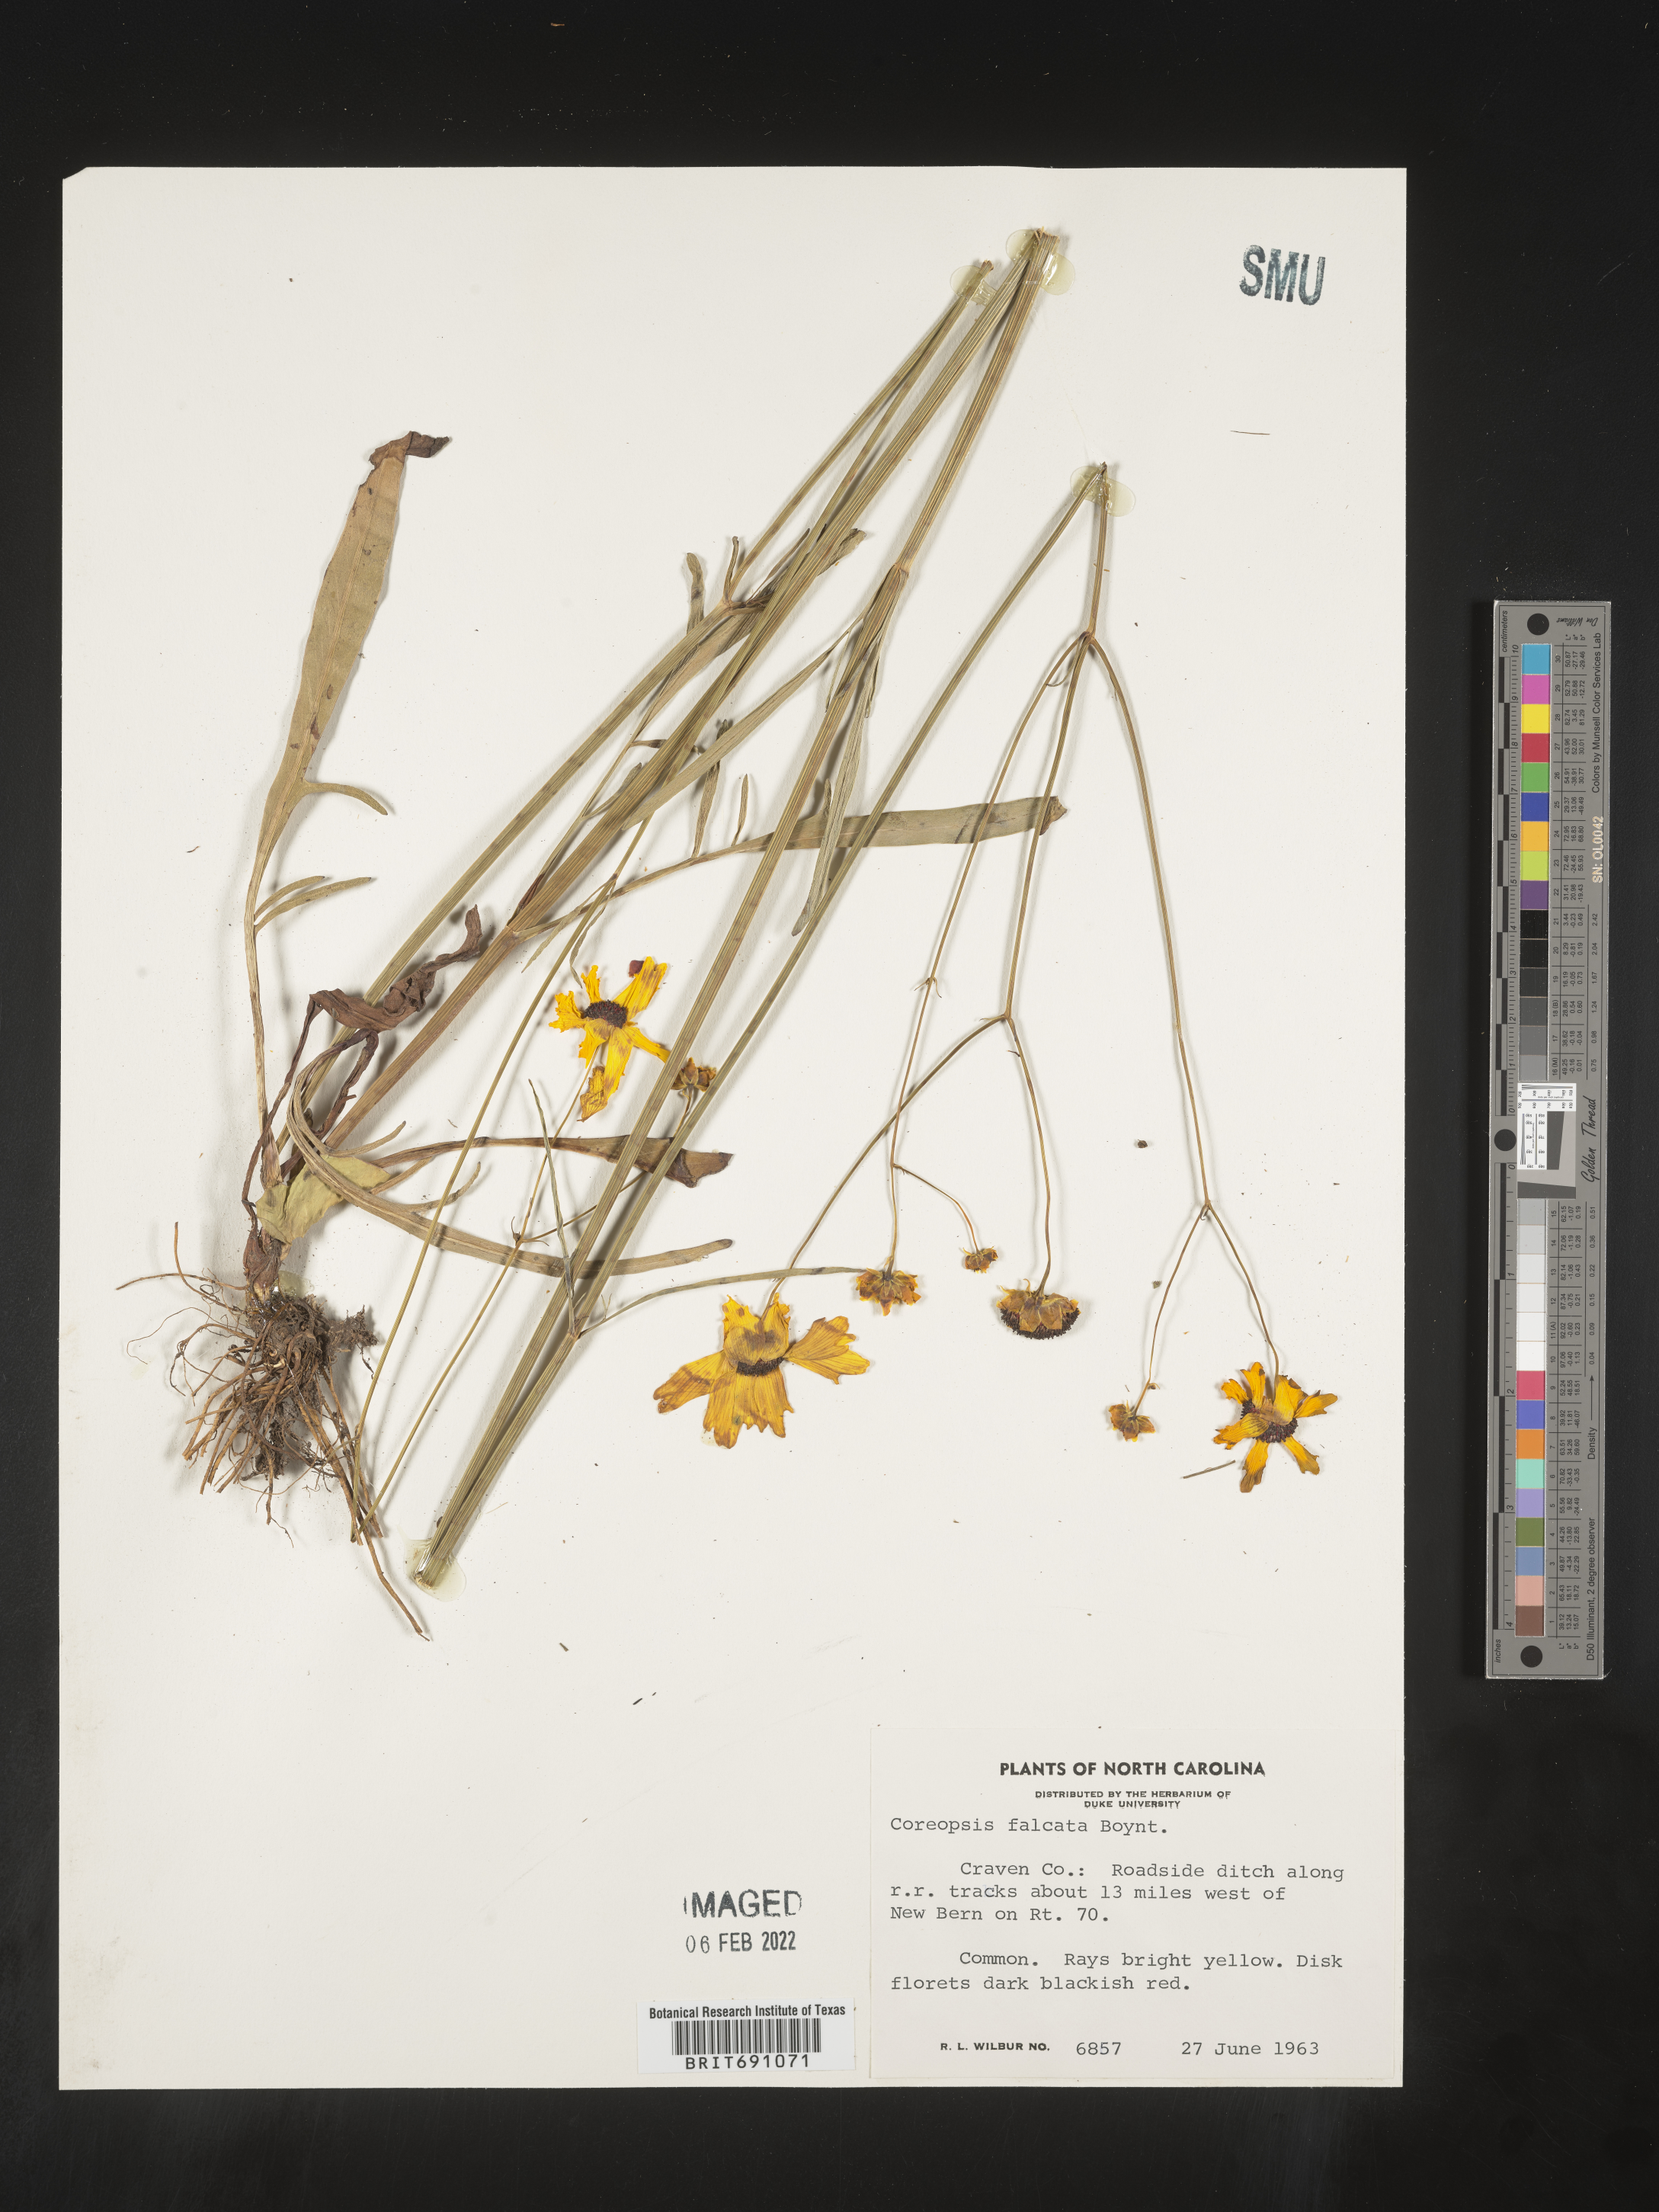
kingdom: Plantae
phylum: Tracheophyta
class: Magnoliopsida
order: Asterales
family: Asteraceae
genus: Coreopsis
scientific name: Coreopsis
